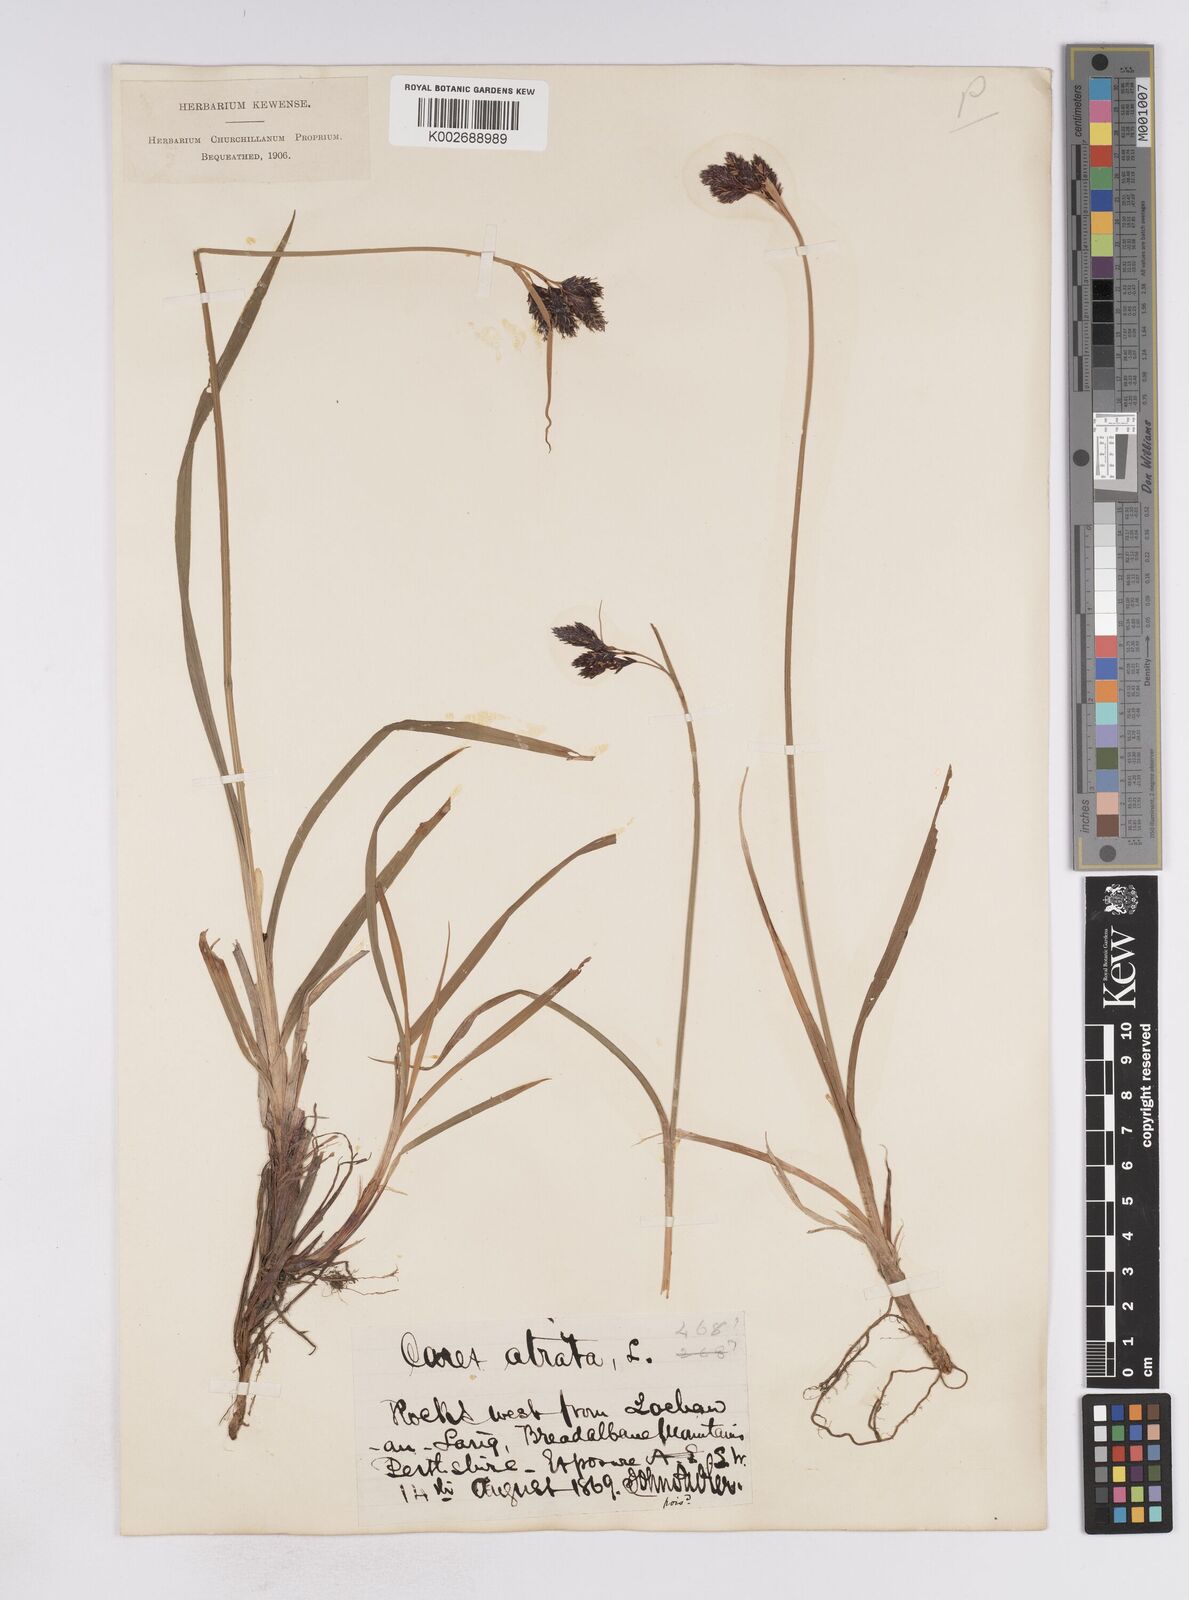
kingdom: Plantae
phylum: Tracheophyta
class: Liliopsida
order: Poales
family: Cyperaceae
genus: Carex
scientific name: Carex atrata
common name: Black alpine sedge
